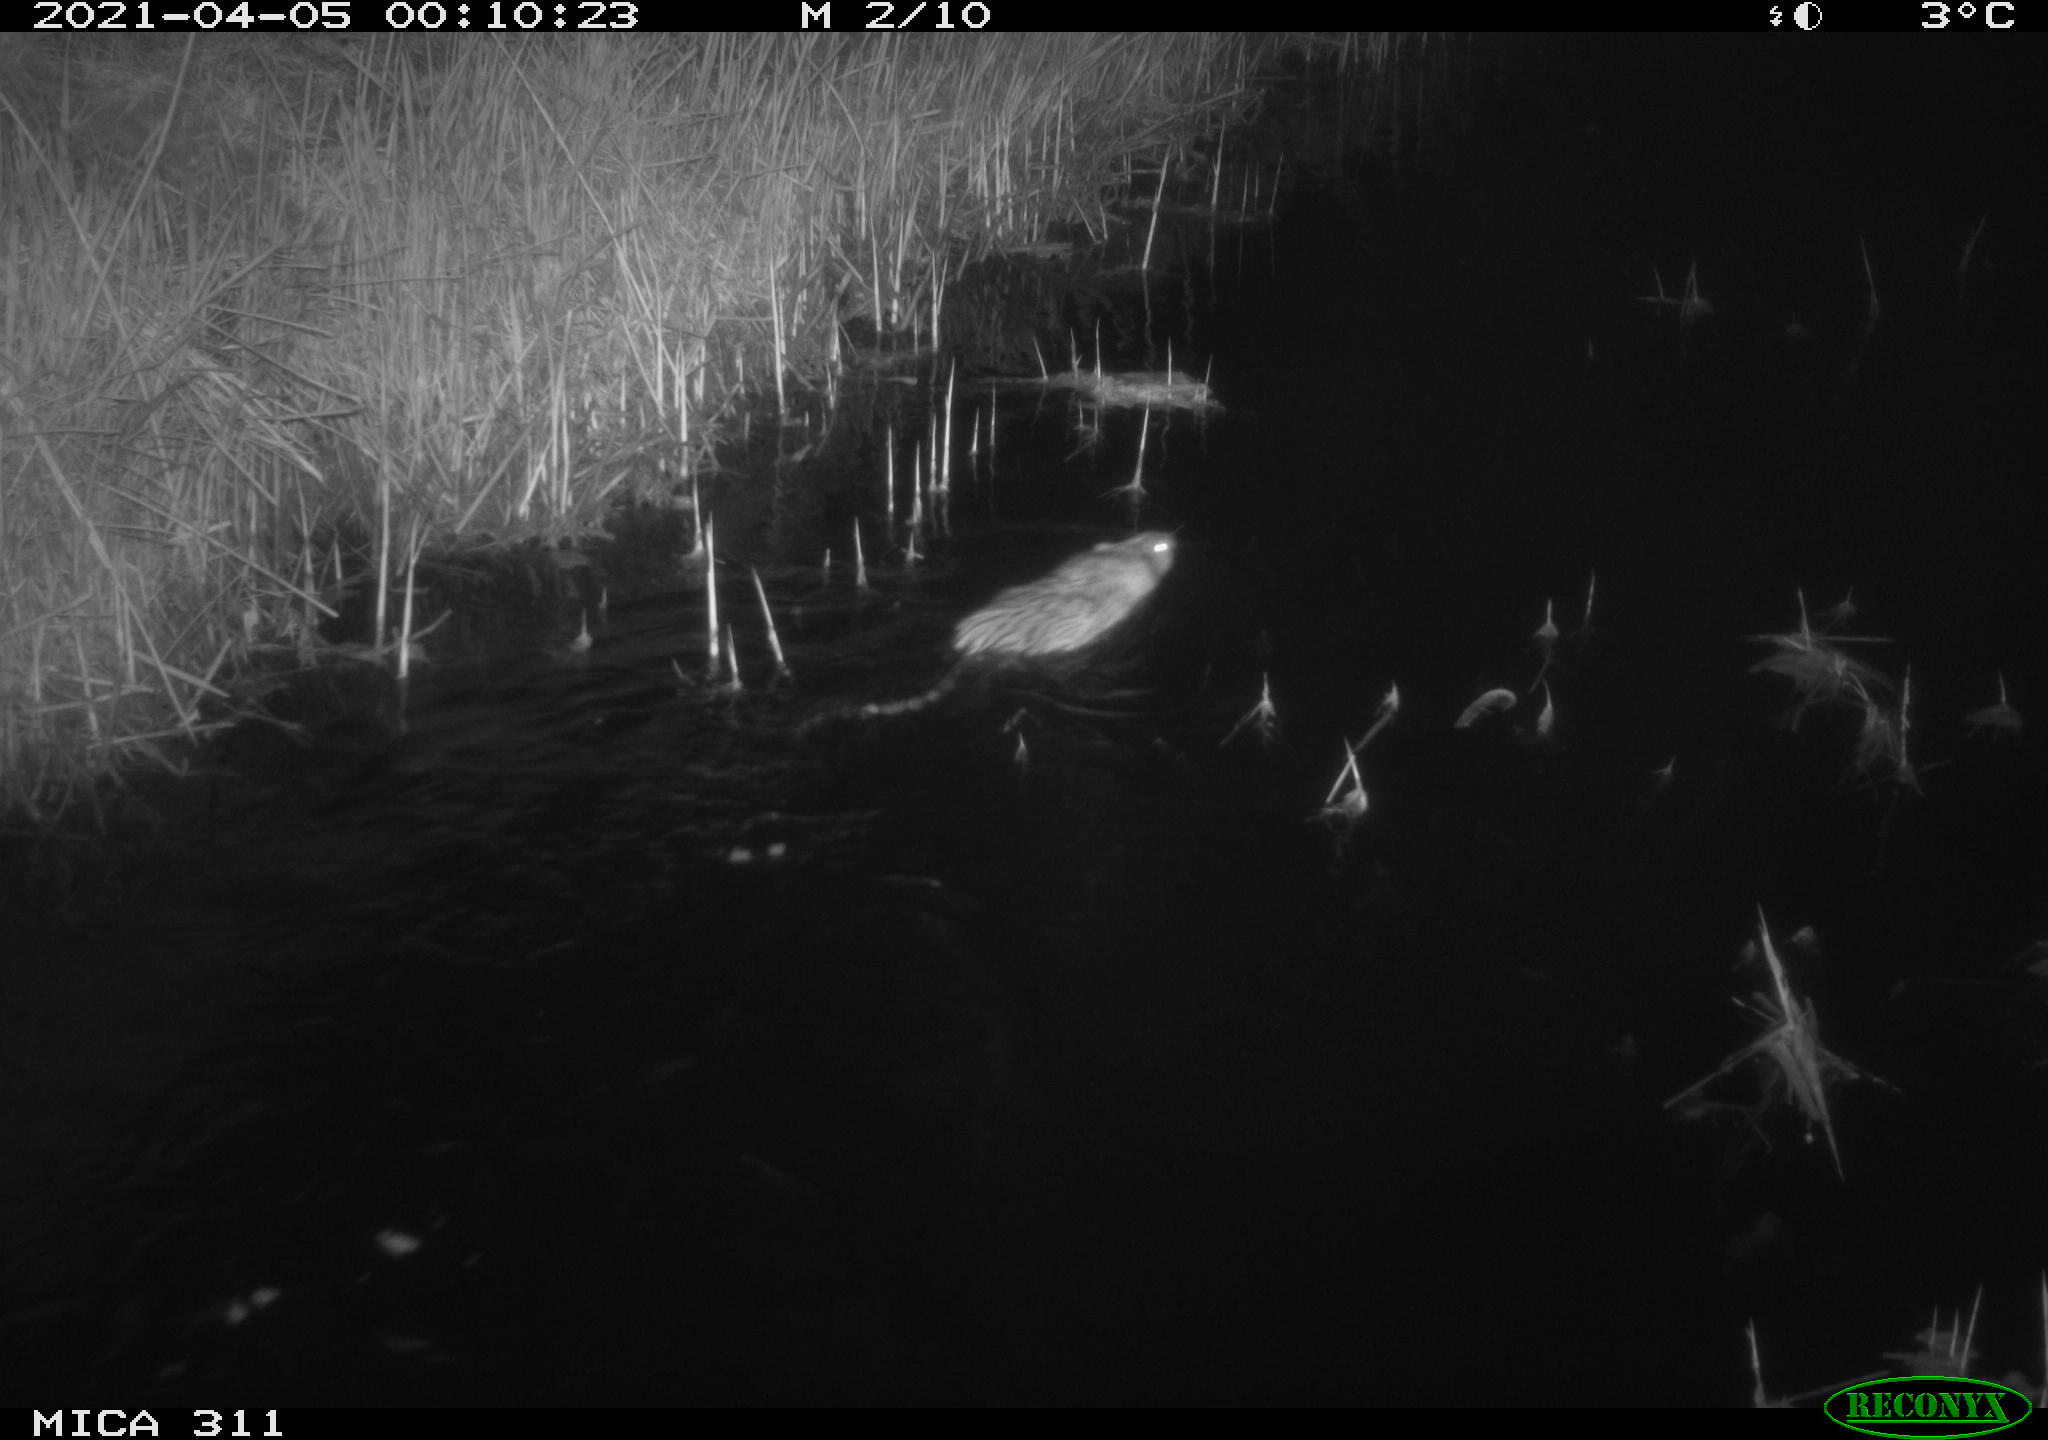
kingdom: Animalia
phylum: Chordata
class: Mammalia
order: Rodentia
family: Cricetidae
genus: Ondatra
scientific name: Ondatra zibethicus
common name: Muskrat
